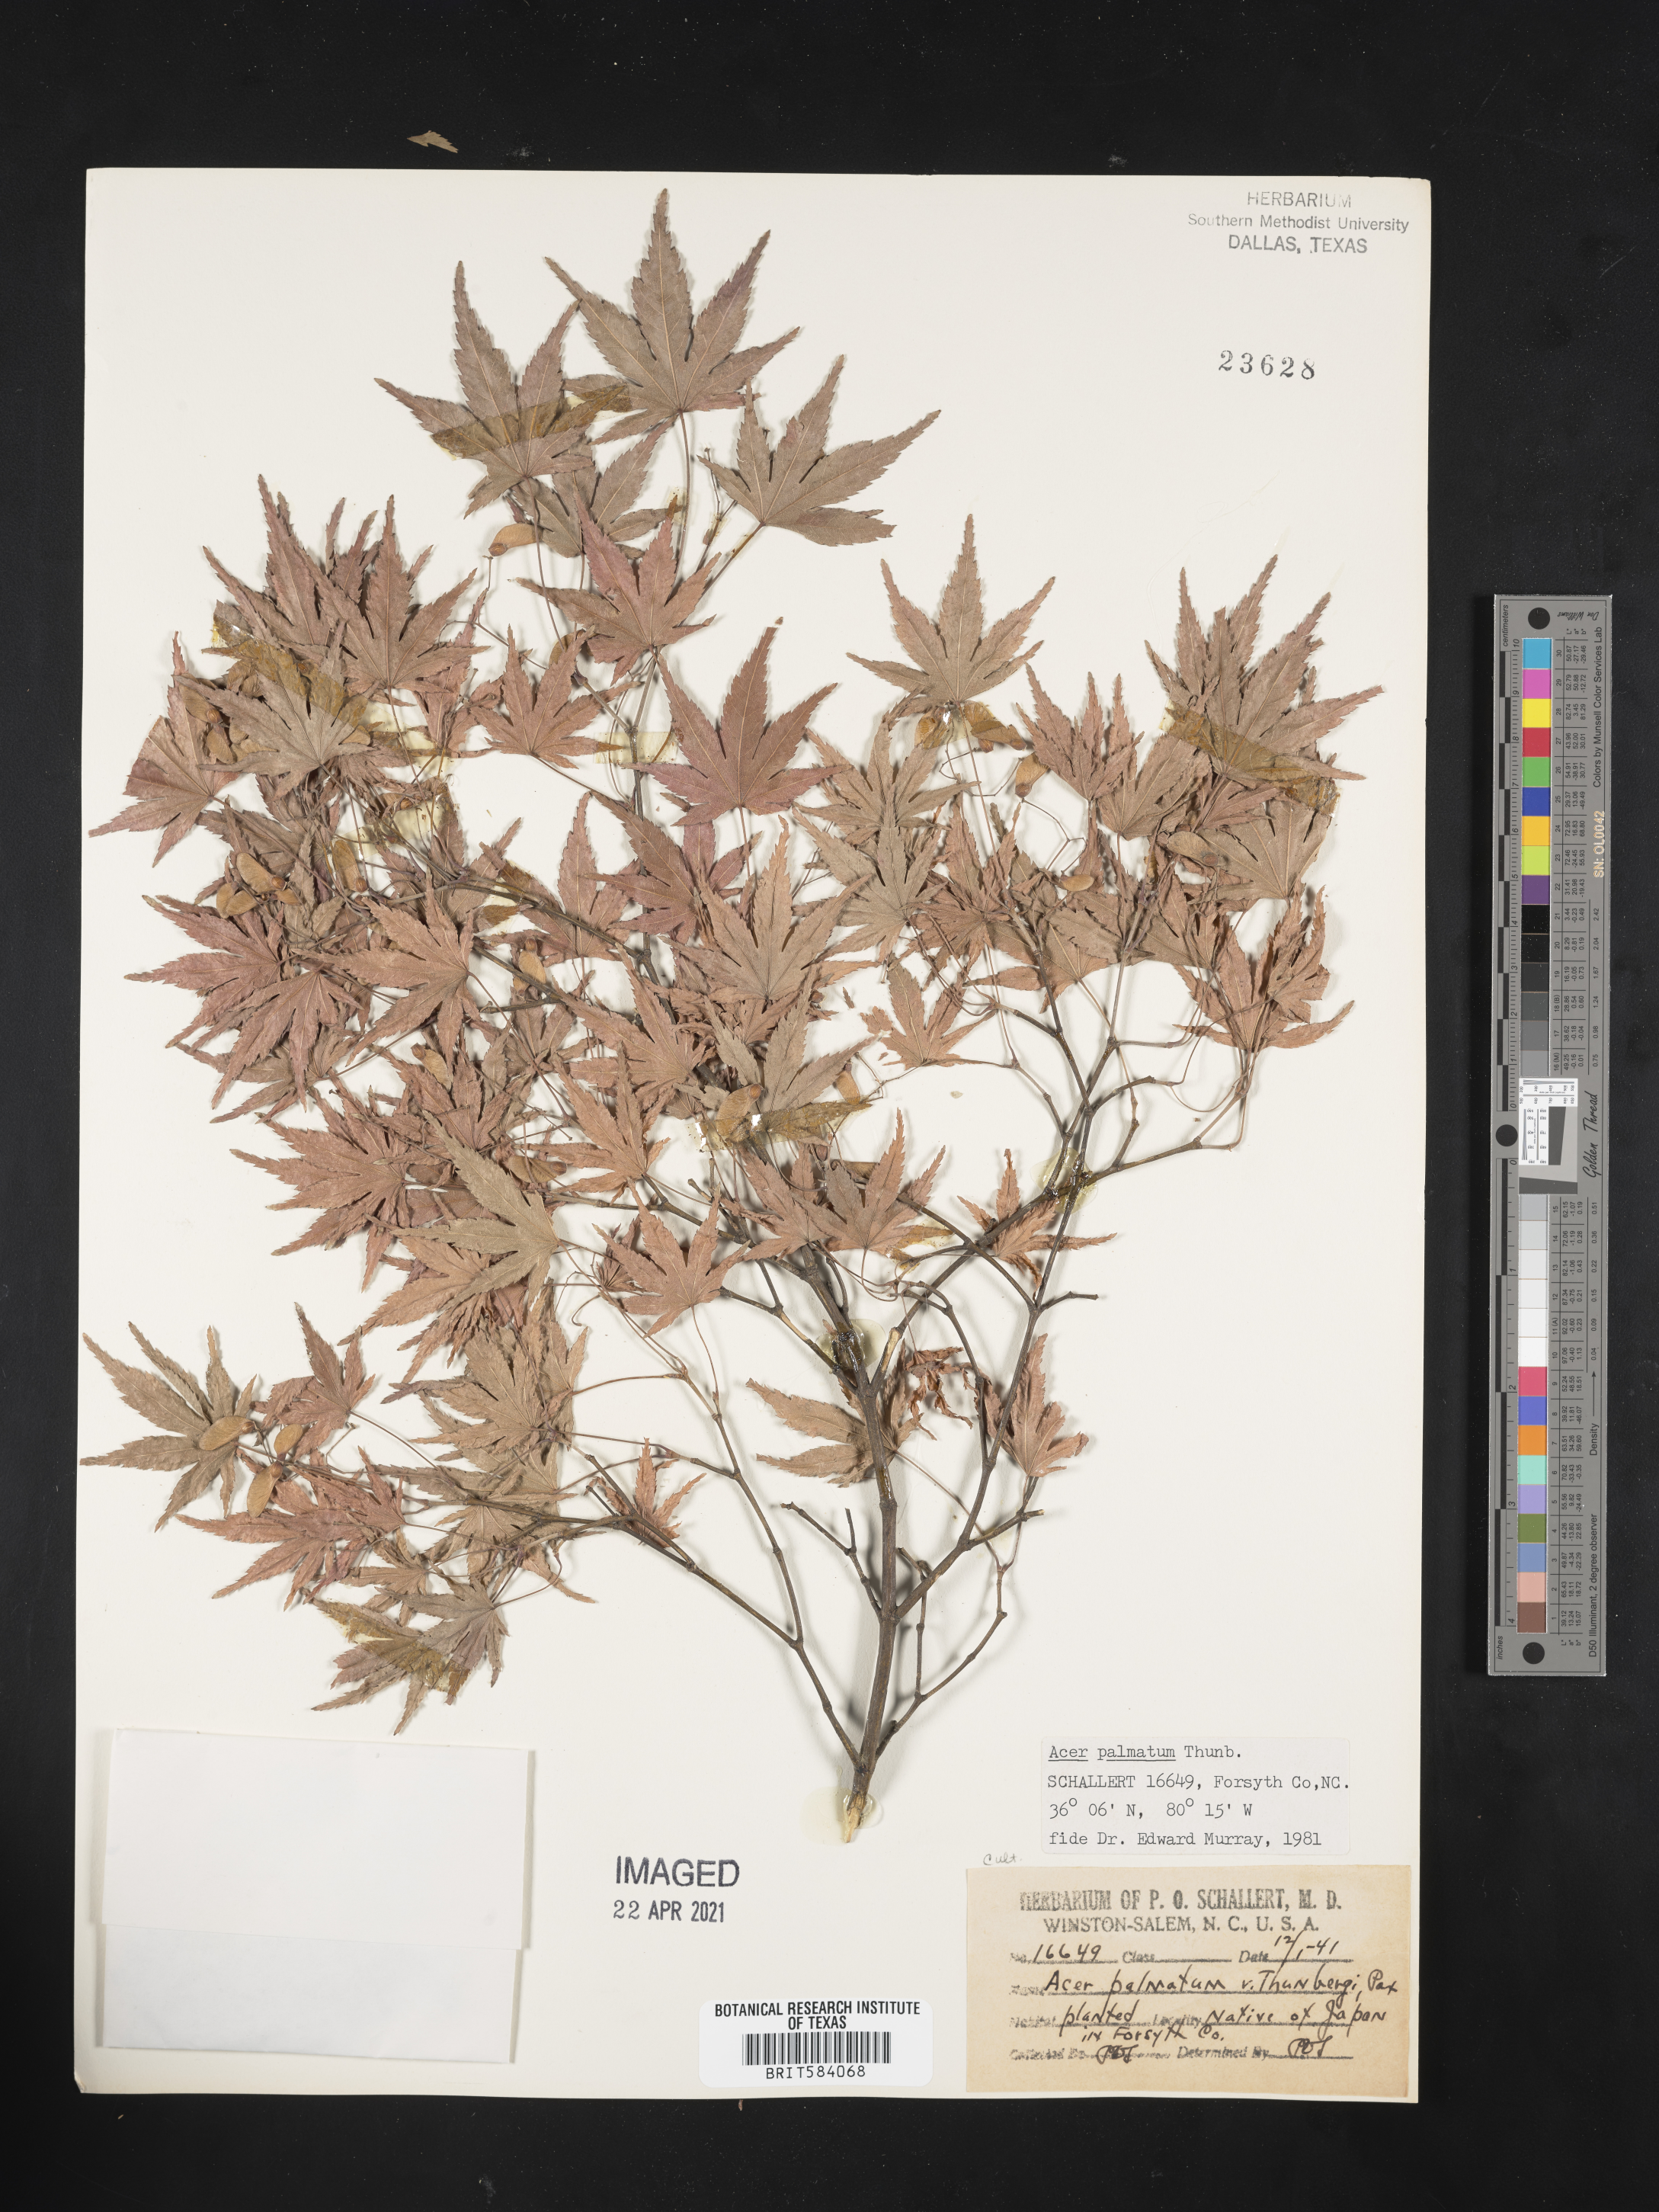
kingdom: Plantae
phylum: Tracheophyta
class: Magnoliopsida
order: Sapindales
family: Sapindaceae
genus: Acer
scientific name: Acer palmatum
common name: Japanese maple
